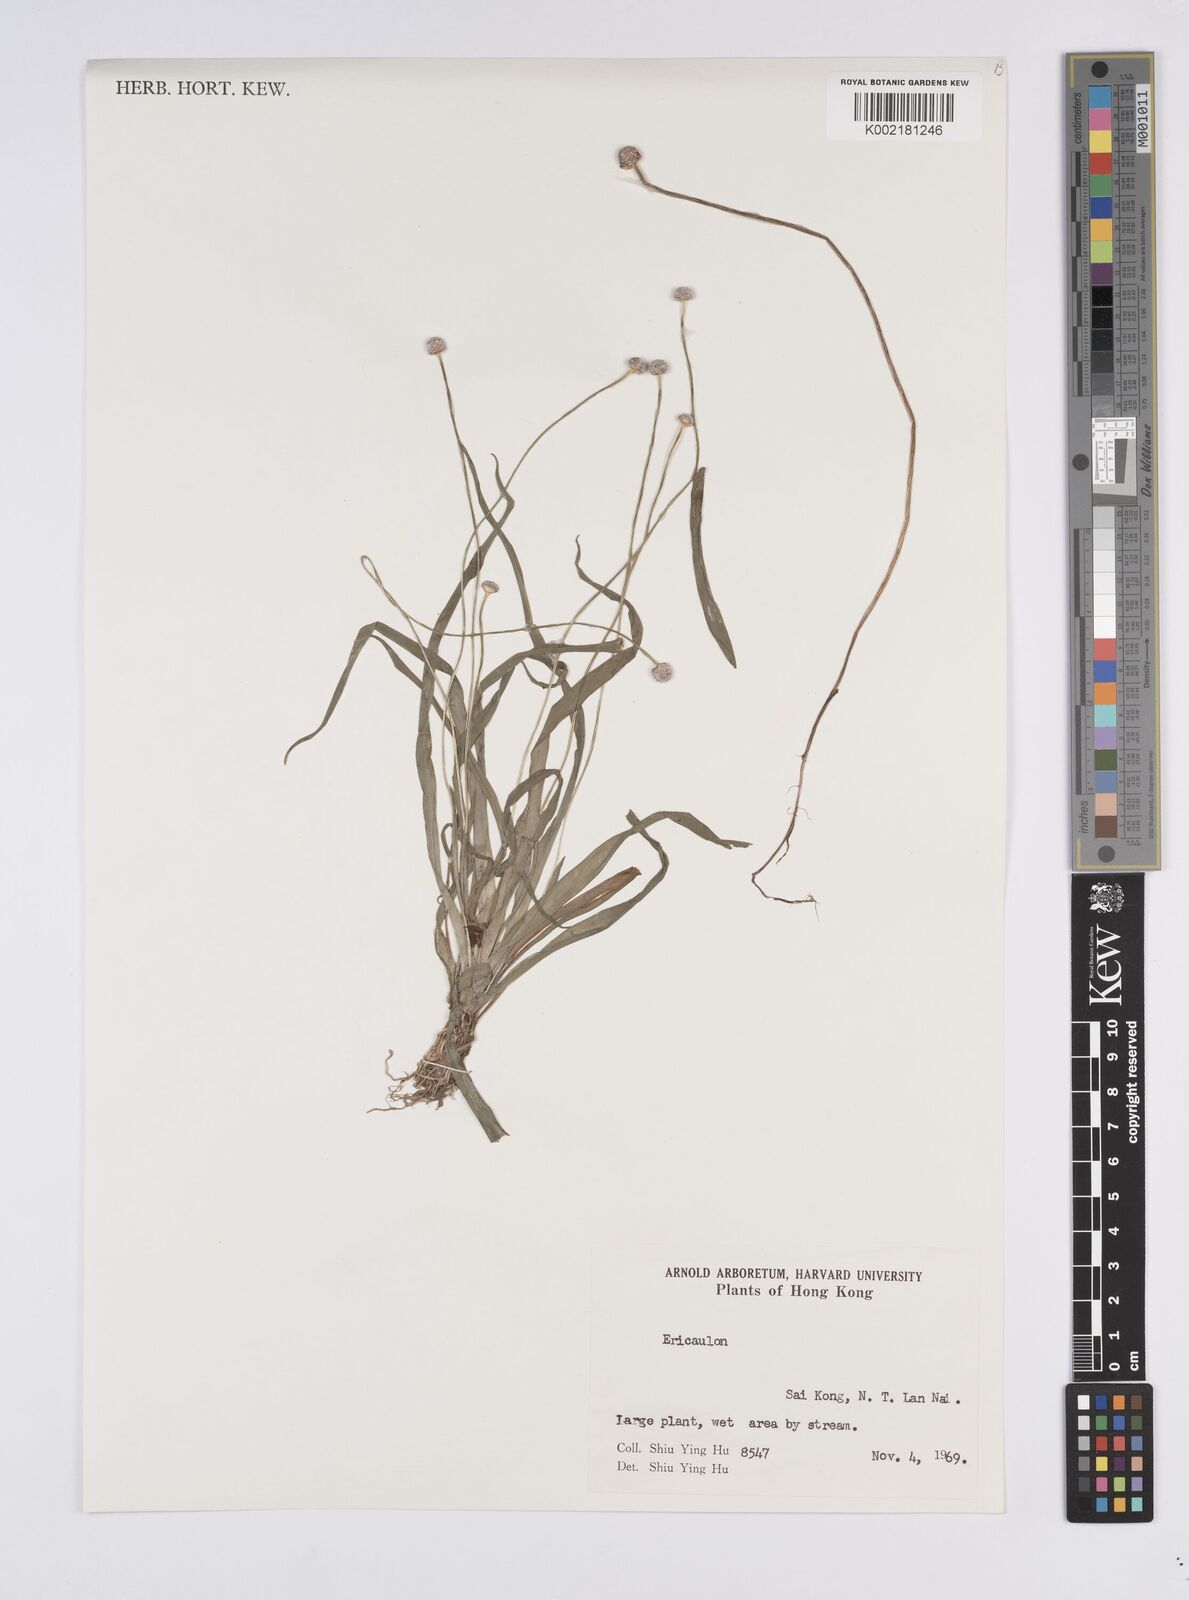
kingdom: Plantae
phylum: Tracheophyta
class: Liliopsida
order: Poales
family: Eriocaulaceae
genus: Eriocaulon
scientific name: Eriocaulon
